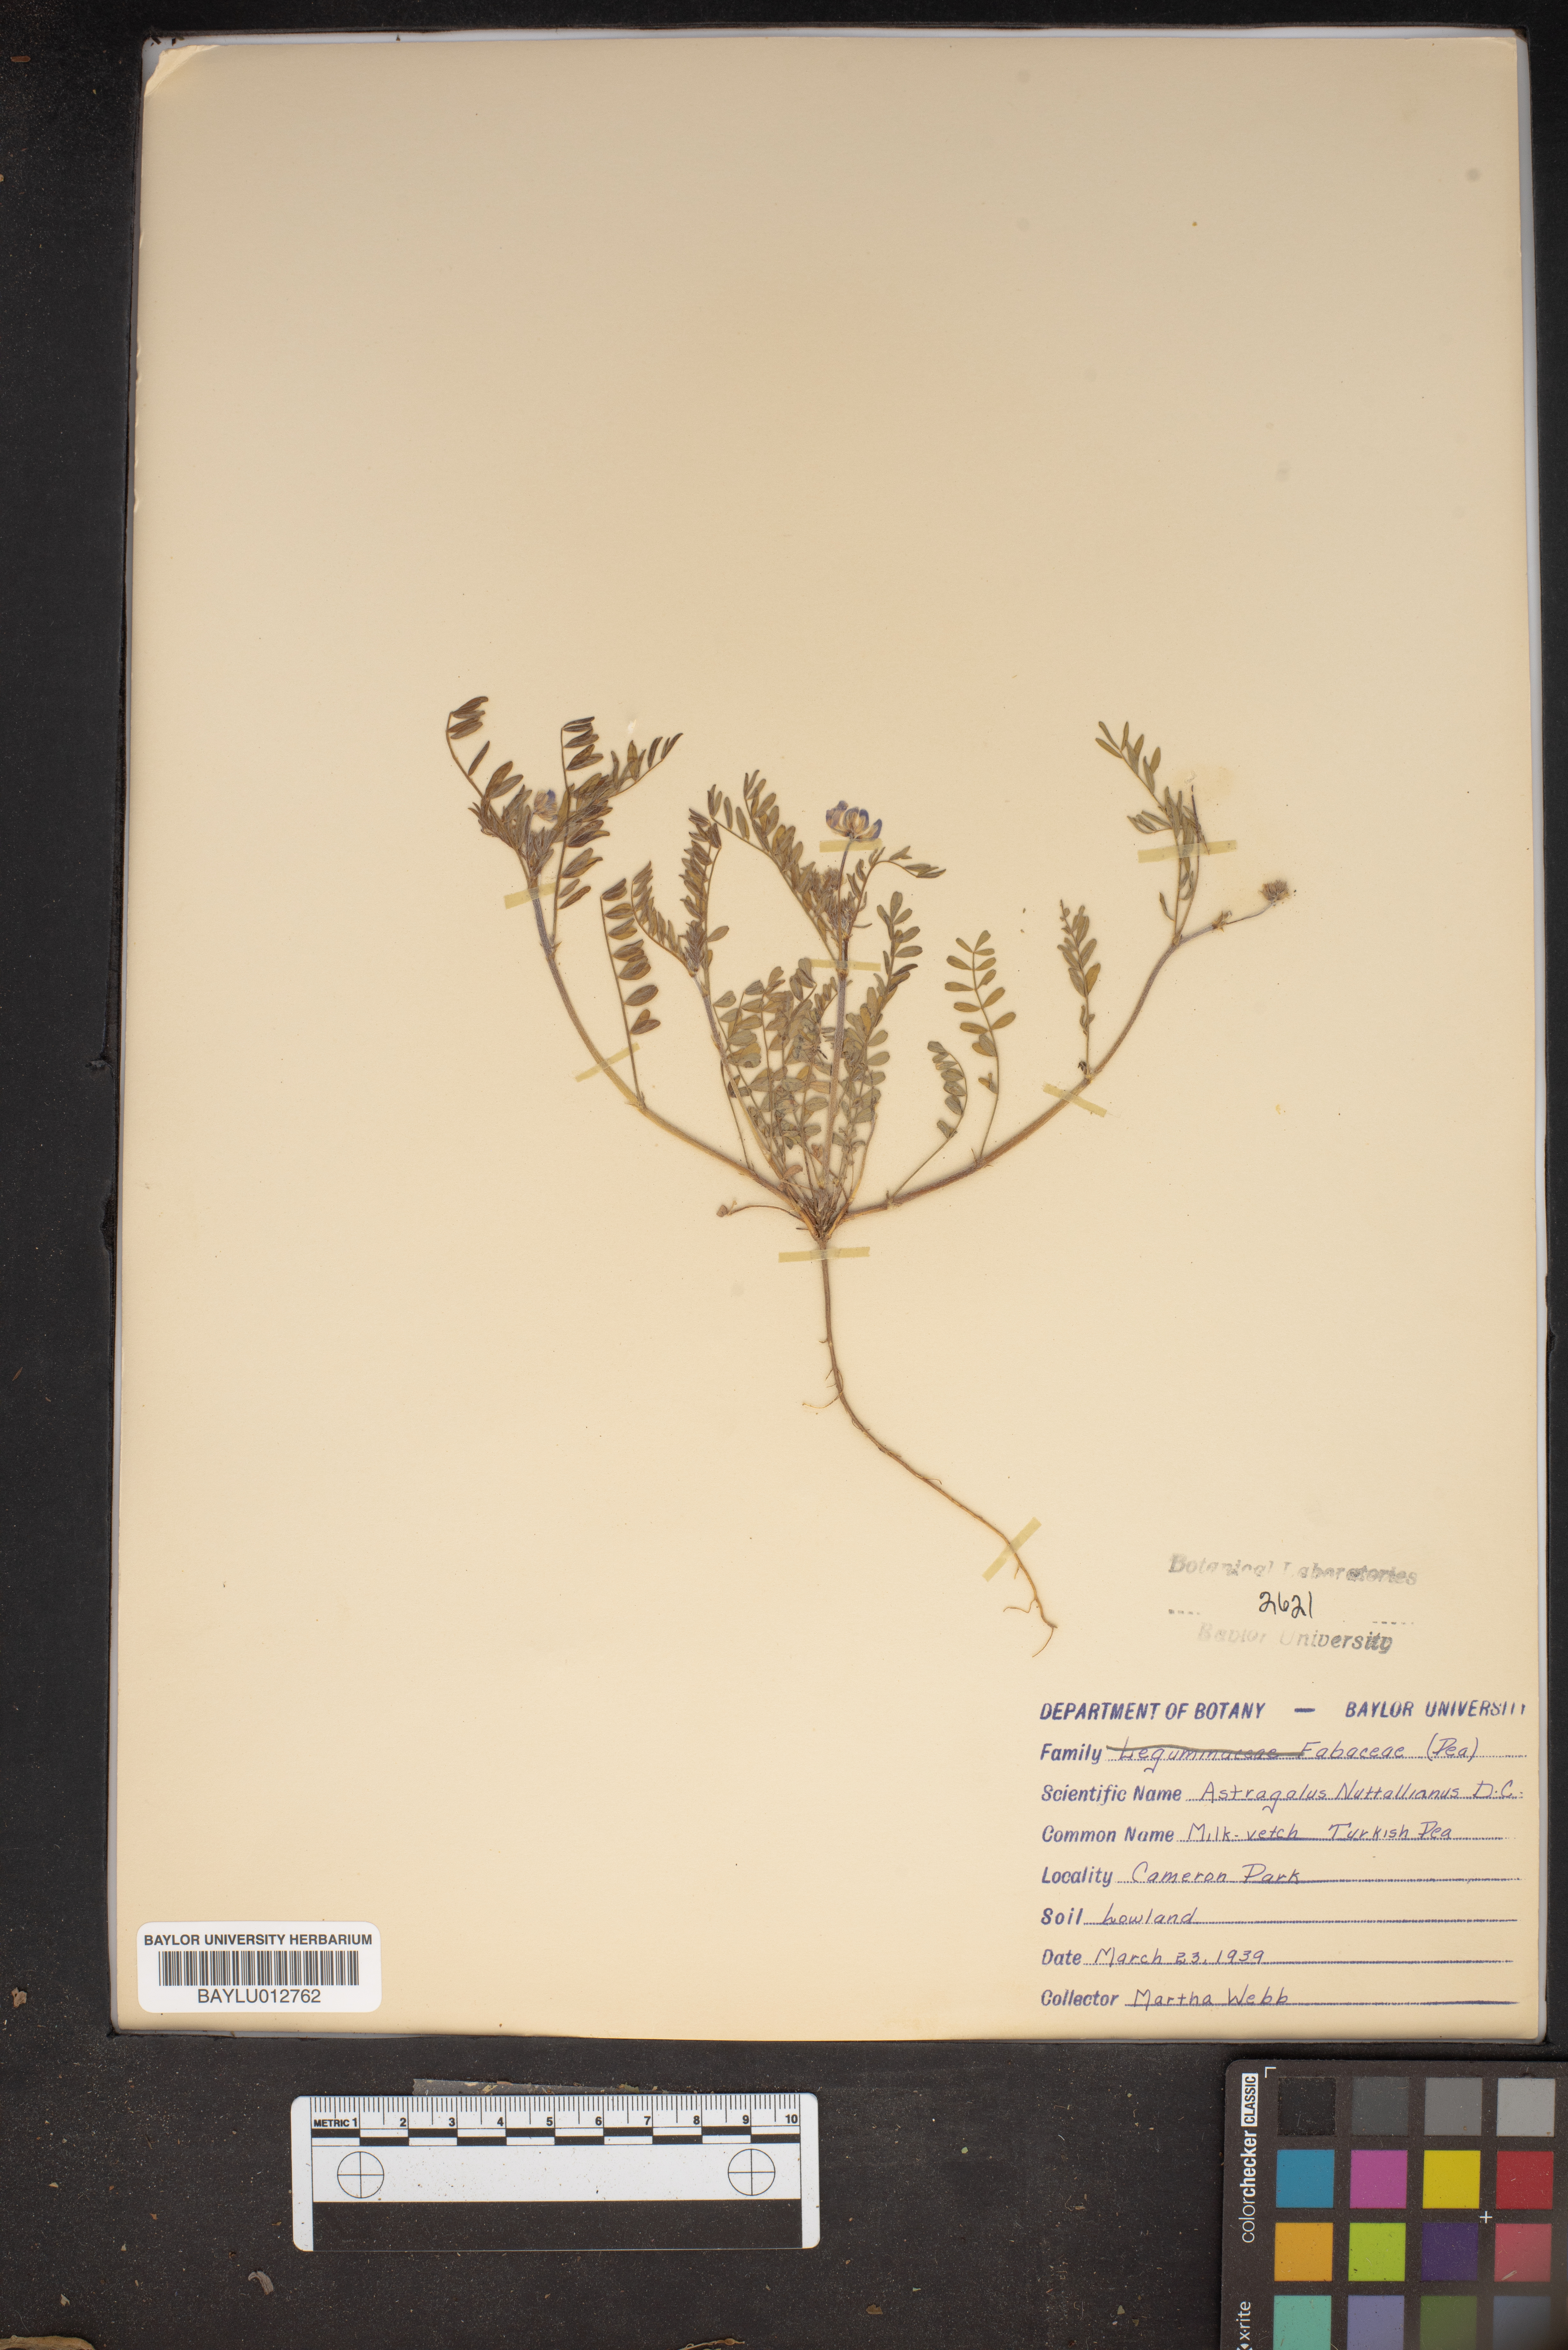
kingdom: Plantae
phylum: Tracheophyta
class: Magnoliopsida
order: Fabales
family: Fabaceae
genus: Astragalus
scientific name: Astragalus nuttallianus
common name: Smallflowered milkvetch
